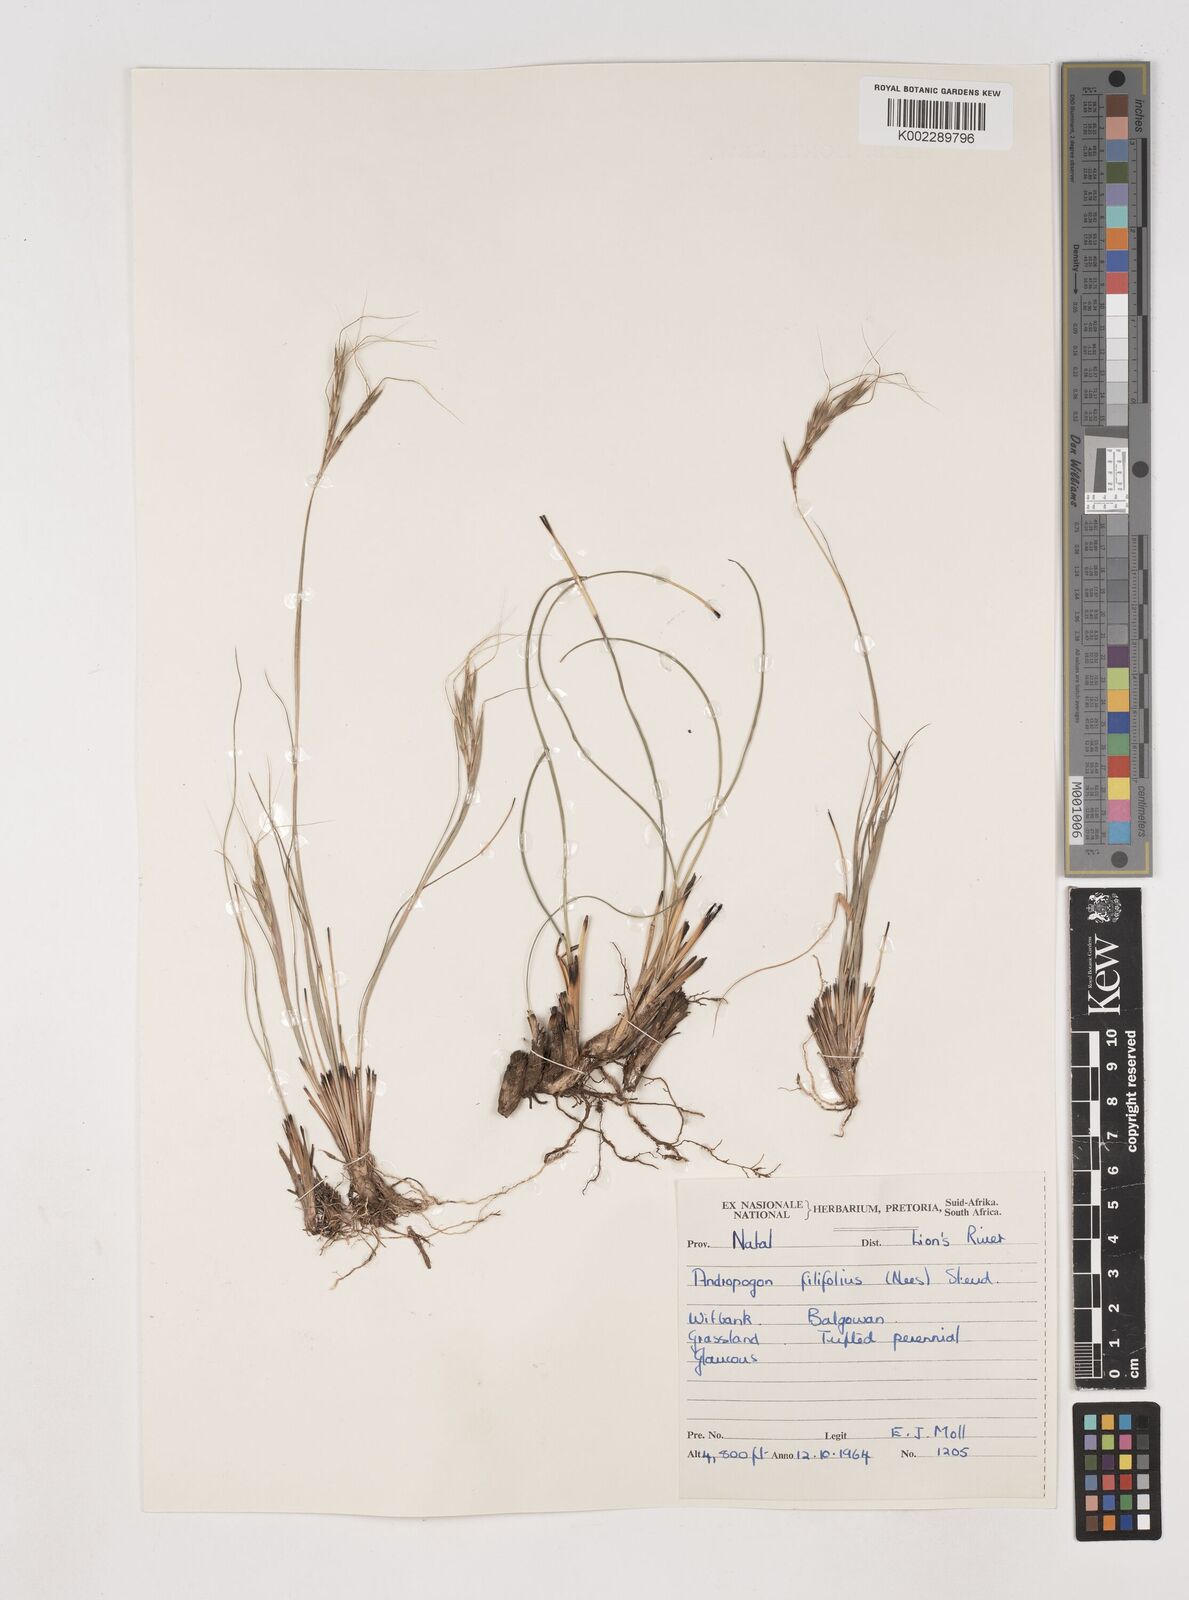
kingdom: Plantae
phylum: Tracheophyta
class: Liliopsida
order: Poales
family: Poaceae
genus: Diheteropogon
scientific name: Diheteropogon filifolius
